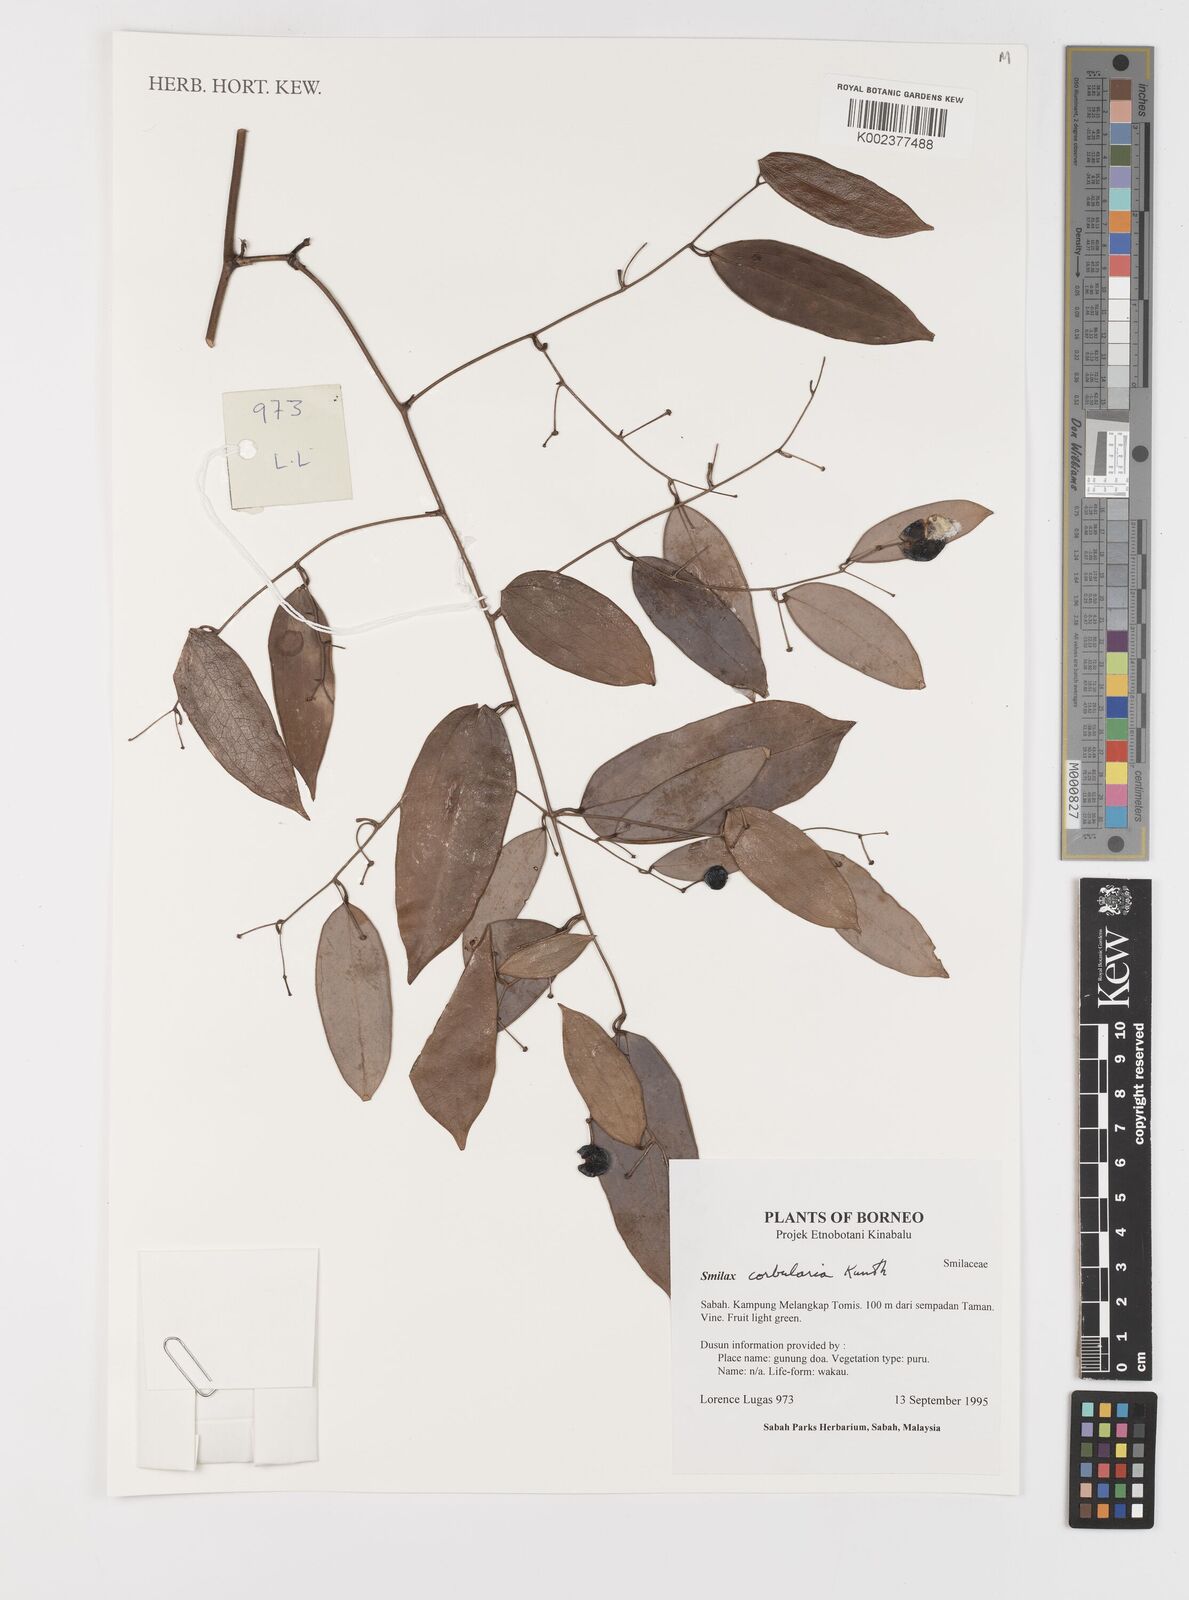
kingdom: Plantae
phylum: Tracheophyta
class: Liliopsida
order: Liliales
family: Smilacaceae
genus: Smilax
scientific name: Smilax corbularia
